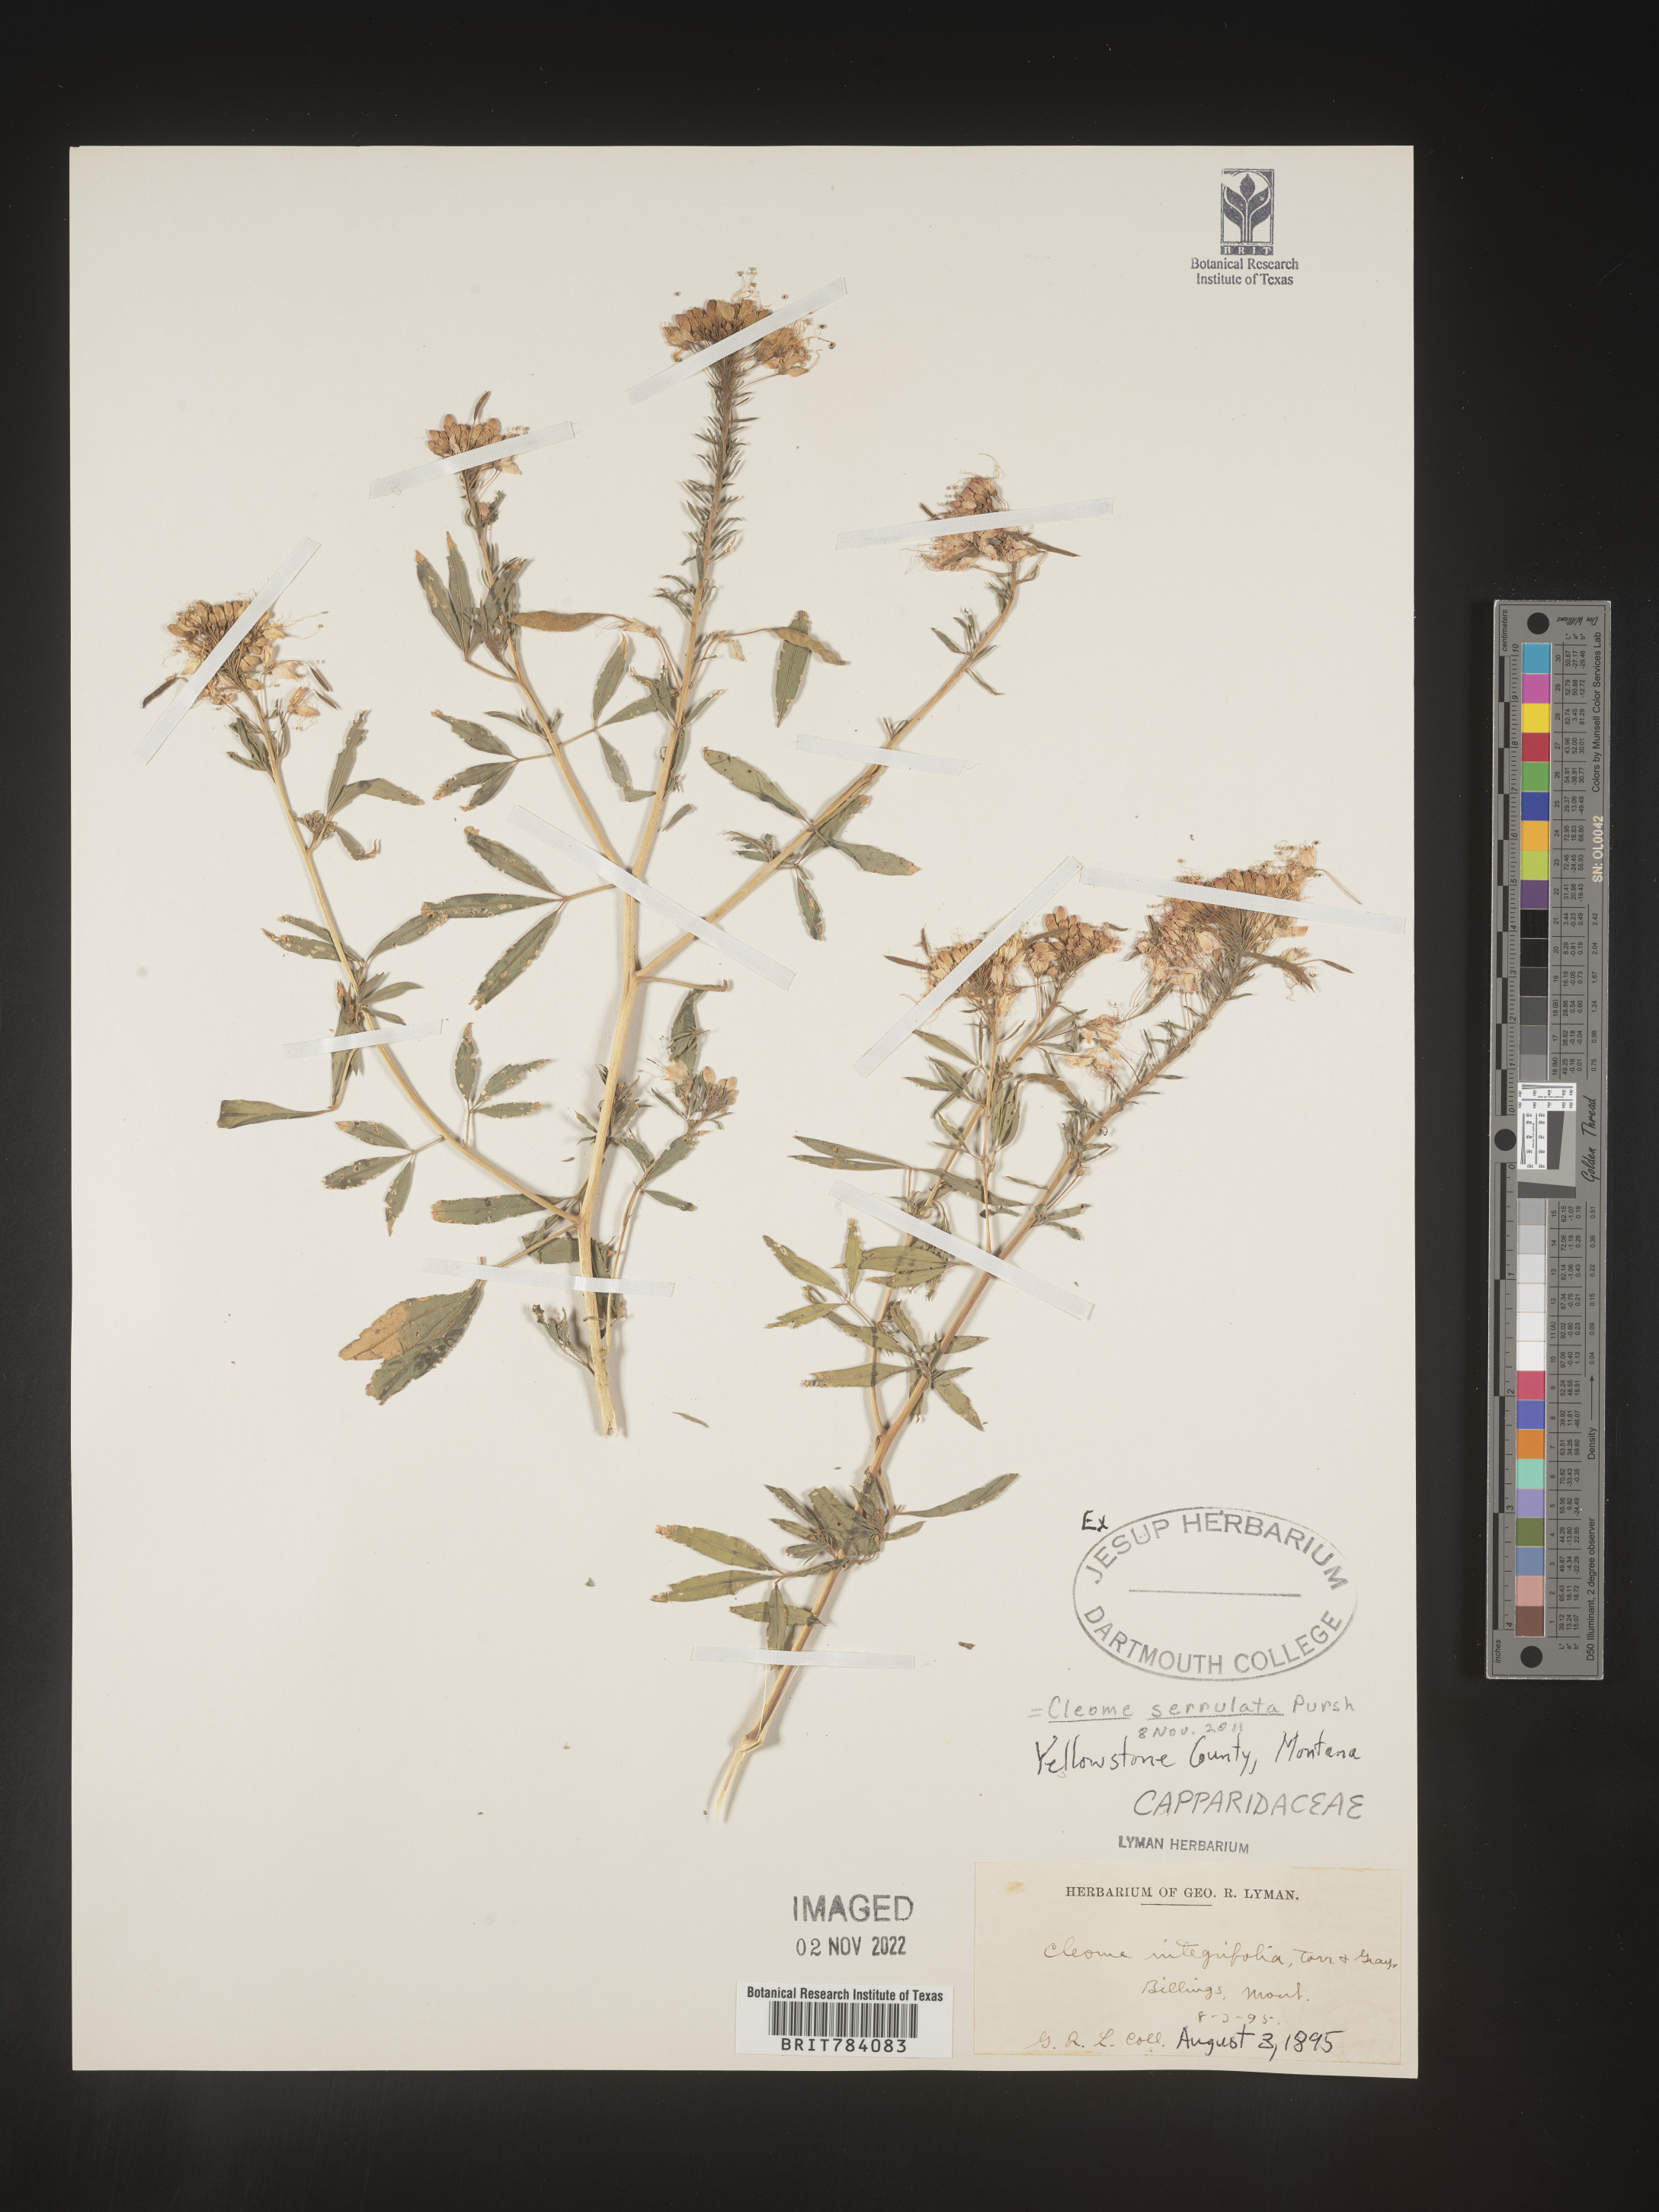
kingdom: Plantae
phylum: Tracheophyta
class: Magnoliopsida
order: Brassicales
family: Cleomaceae
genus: Cleomella
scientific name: Cleomella serrulata
